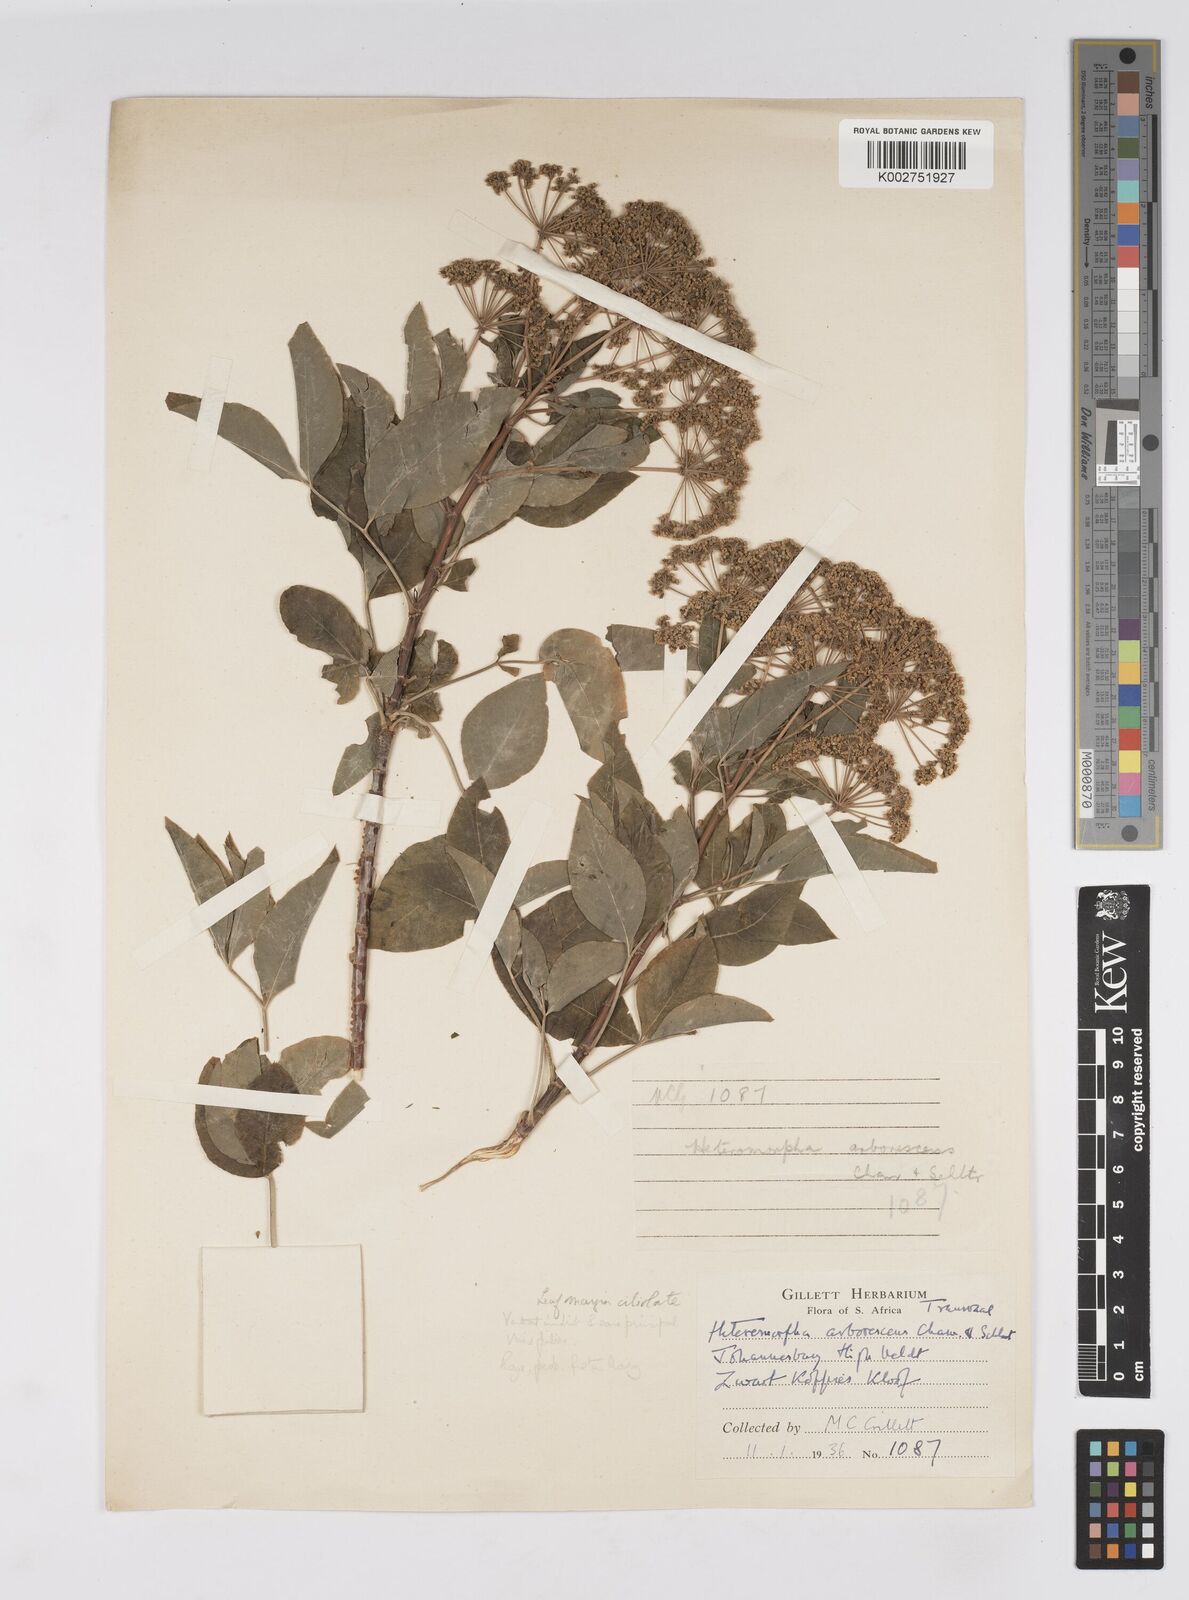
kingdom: Plantae
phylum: Tracheophyta
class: Magnoliopsida
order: Apiales
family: Apiaceae
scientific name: Apiaceae
